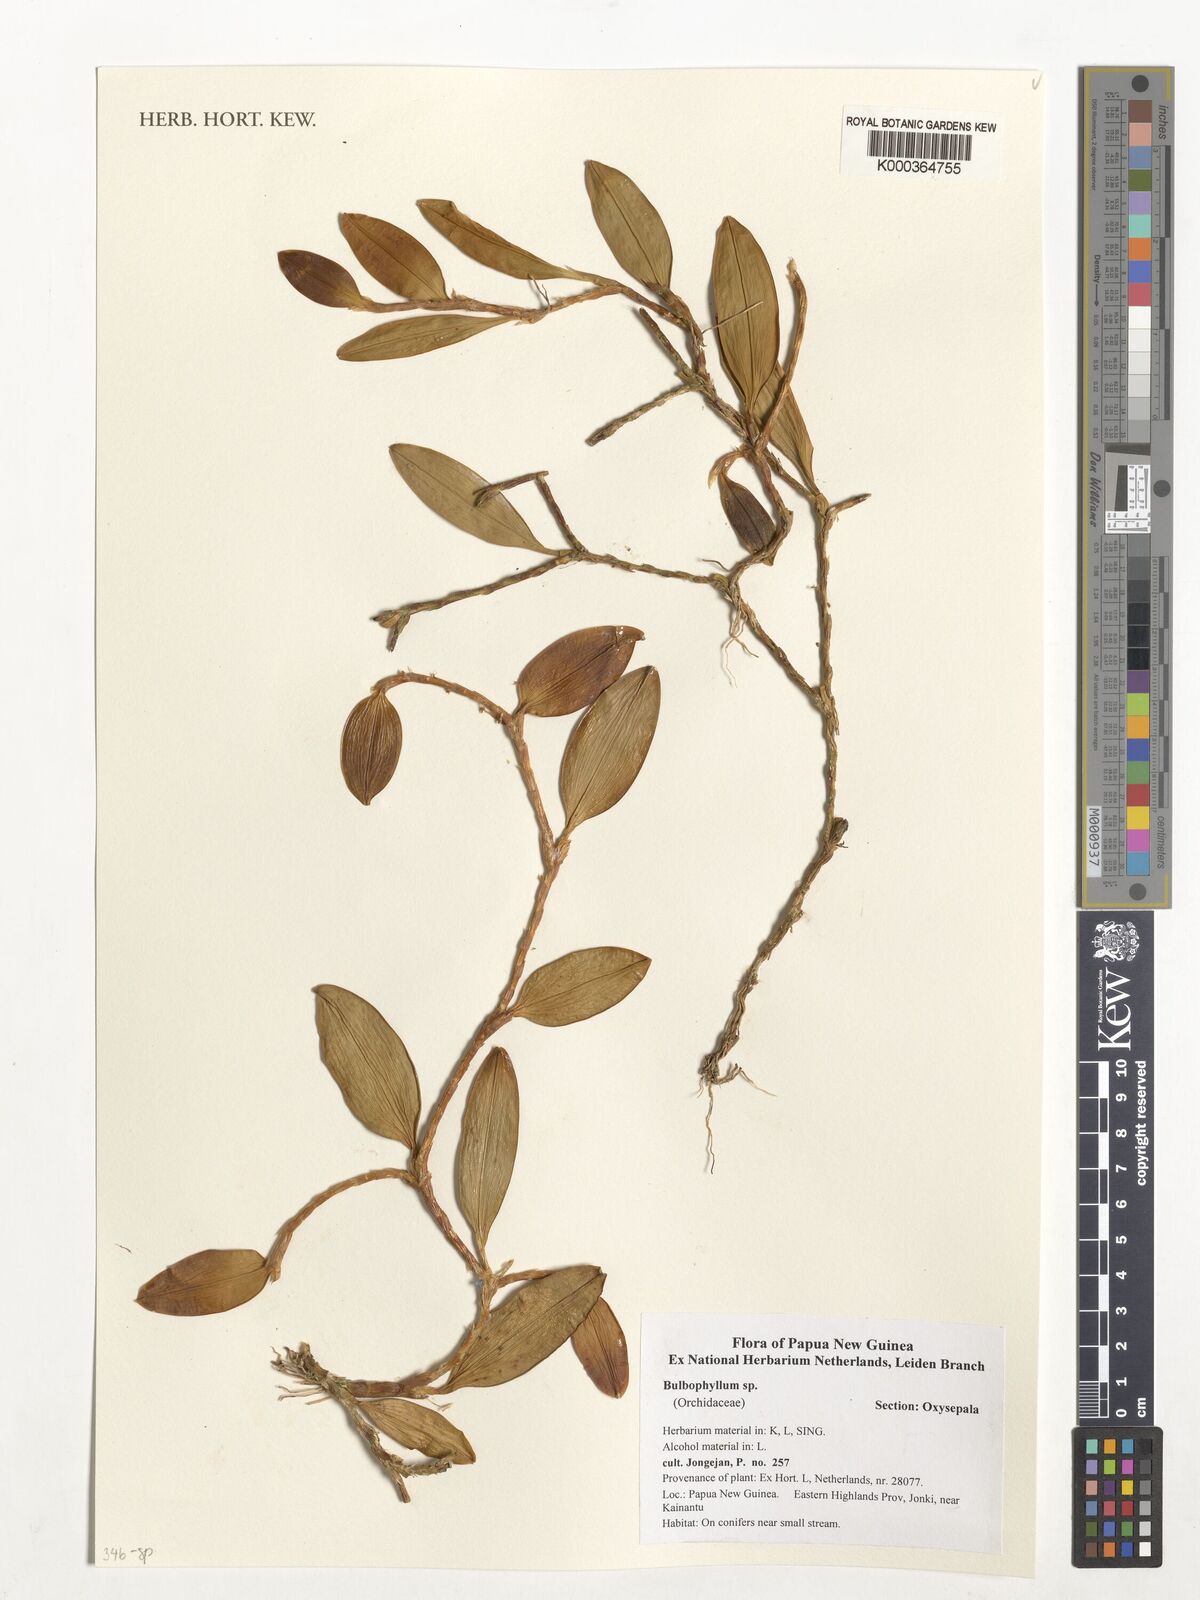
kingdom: Plantae
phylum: Tracheophyta
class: Liliopsida
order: Asparagales
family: Orchidaceae
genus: Bulbophyllum
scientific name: Bulbophyllum
